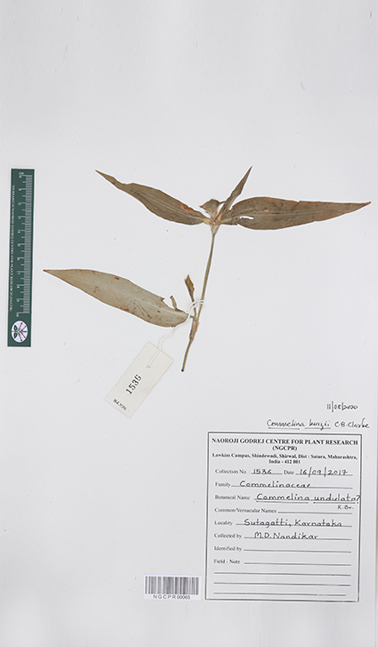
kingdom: Plantae
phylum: Tracheophyta
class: Liliopsida
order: Commelinales
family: Commelinaceae
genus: Commelina
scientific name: Commelina undulata
